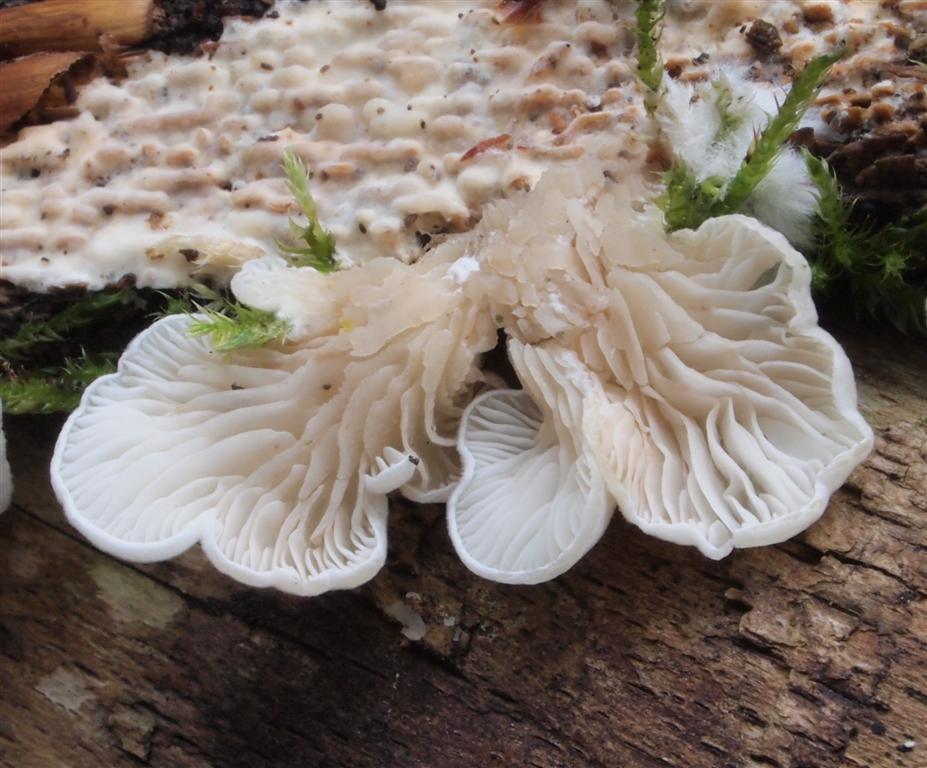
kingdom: Fungi
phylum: Basidiomycota
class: Agaricomycetes
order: Agaricales
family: Entolomataceae
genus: Clitopilus
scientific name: Clitopilus hobsonii
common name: Miller's oysterling
